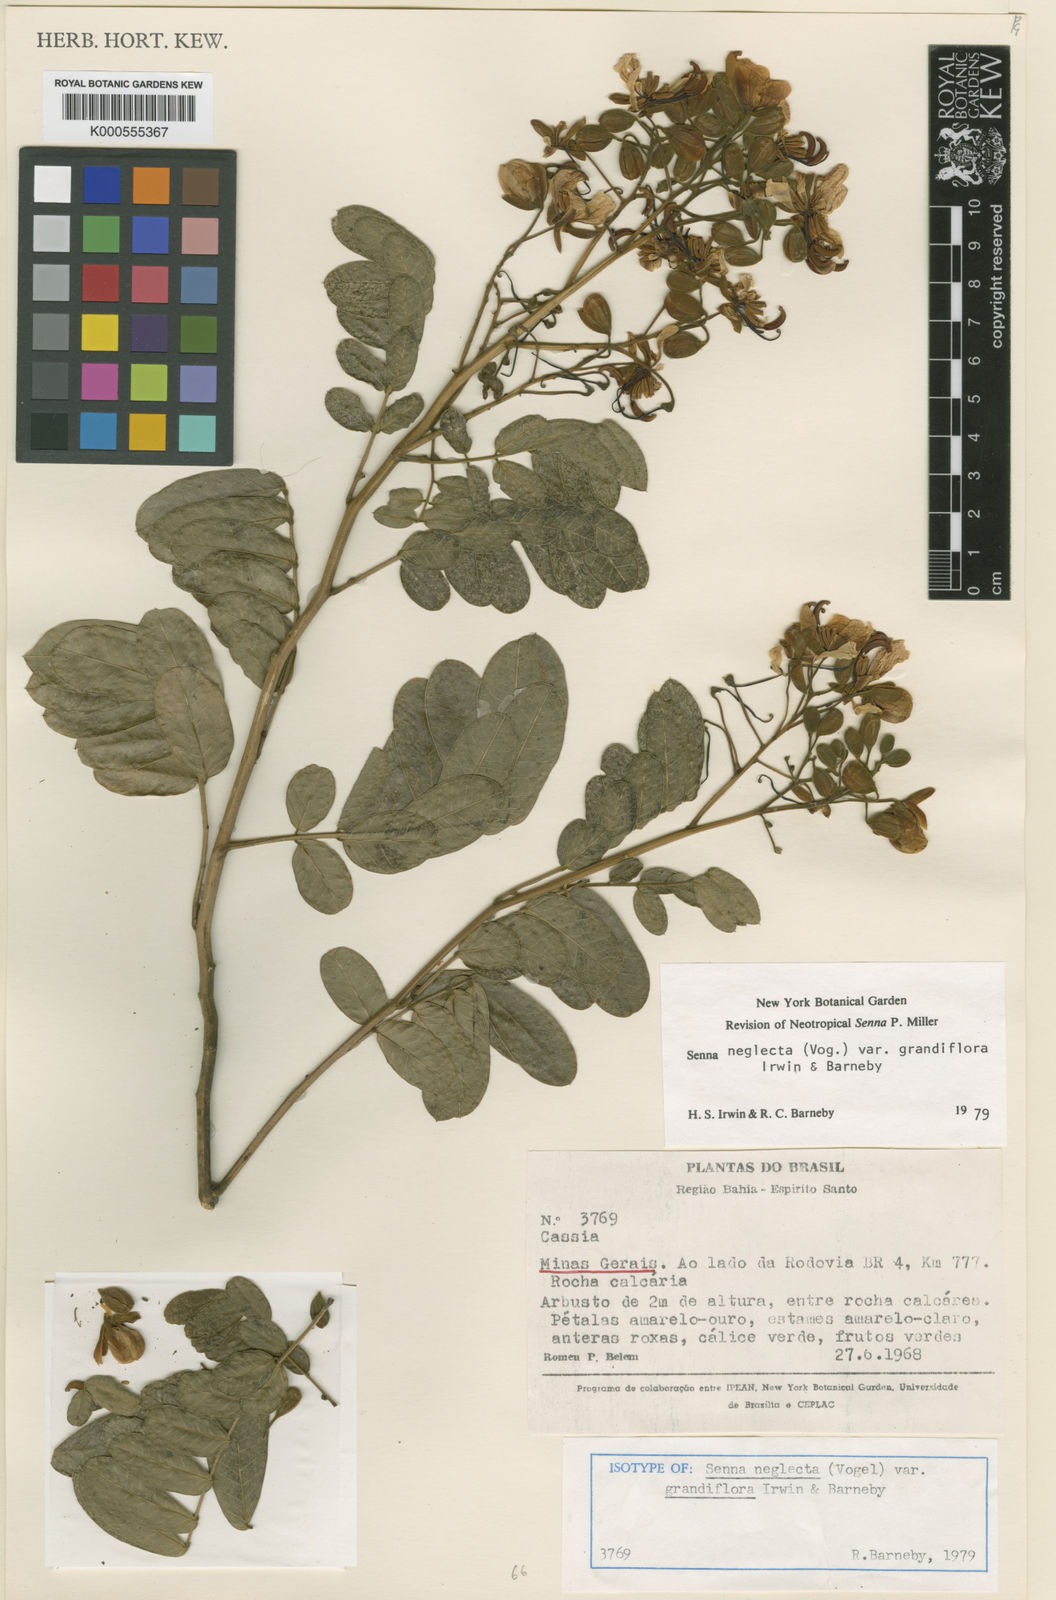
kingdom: Plantae
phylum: Tracheophyta
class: Magnoliopsida
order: Fabales
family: Fabaceae
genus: Senna
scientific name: Senna neglecta
